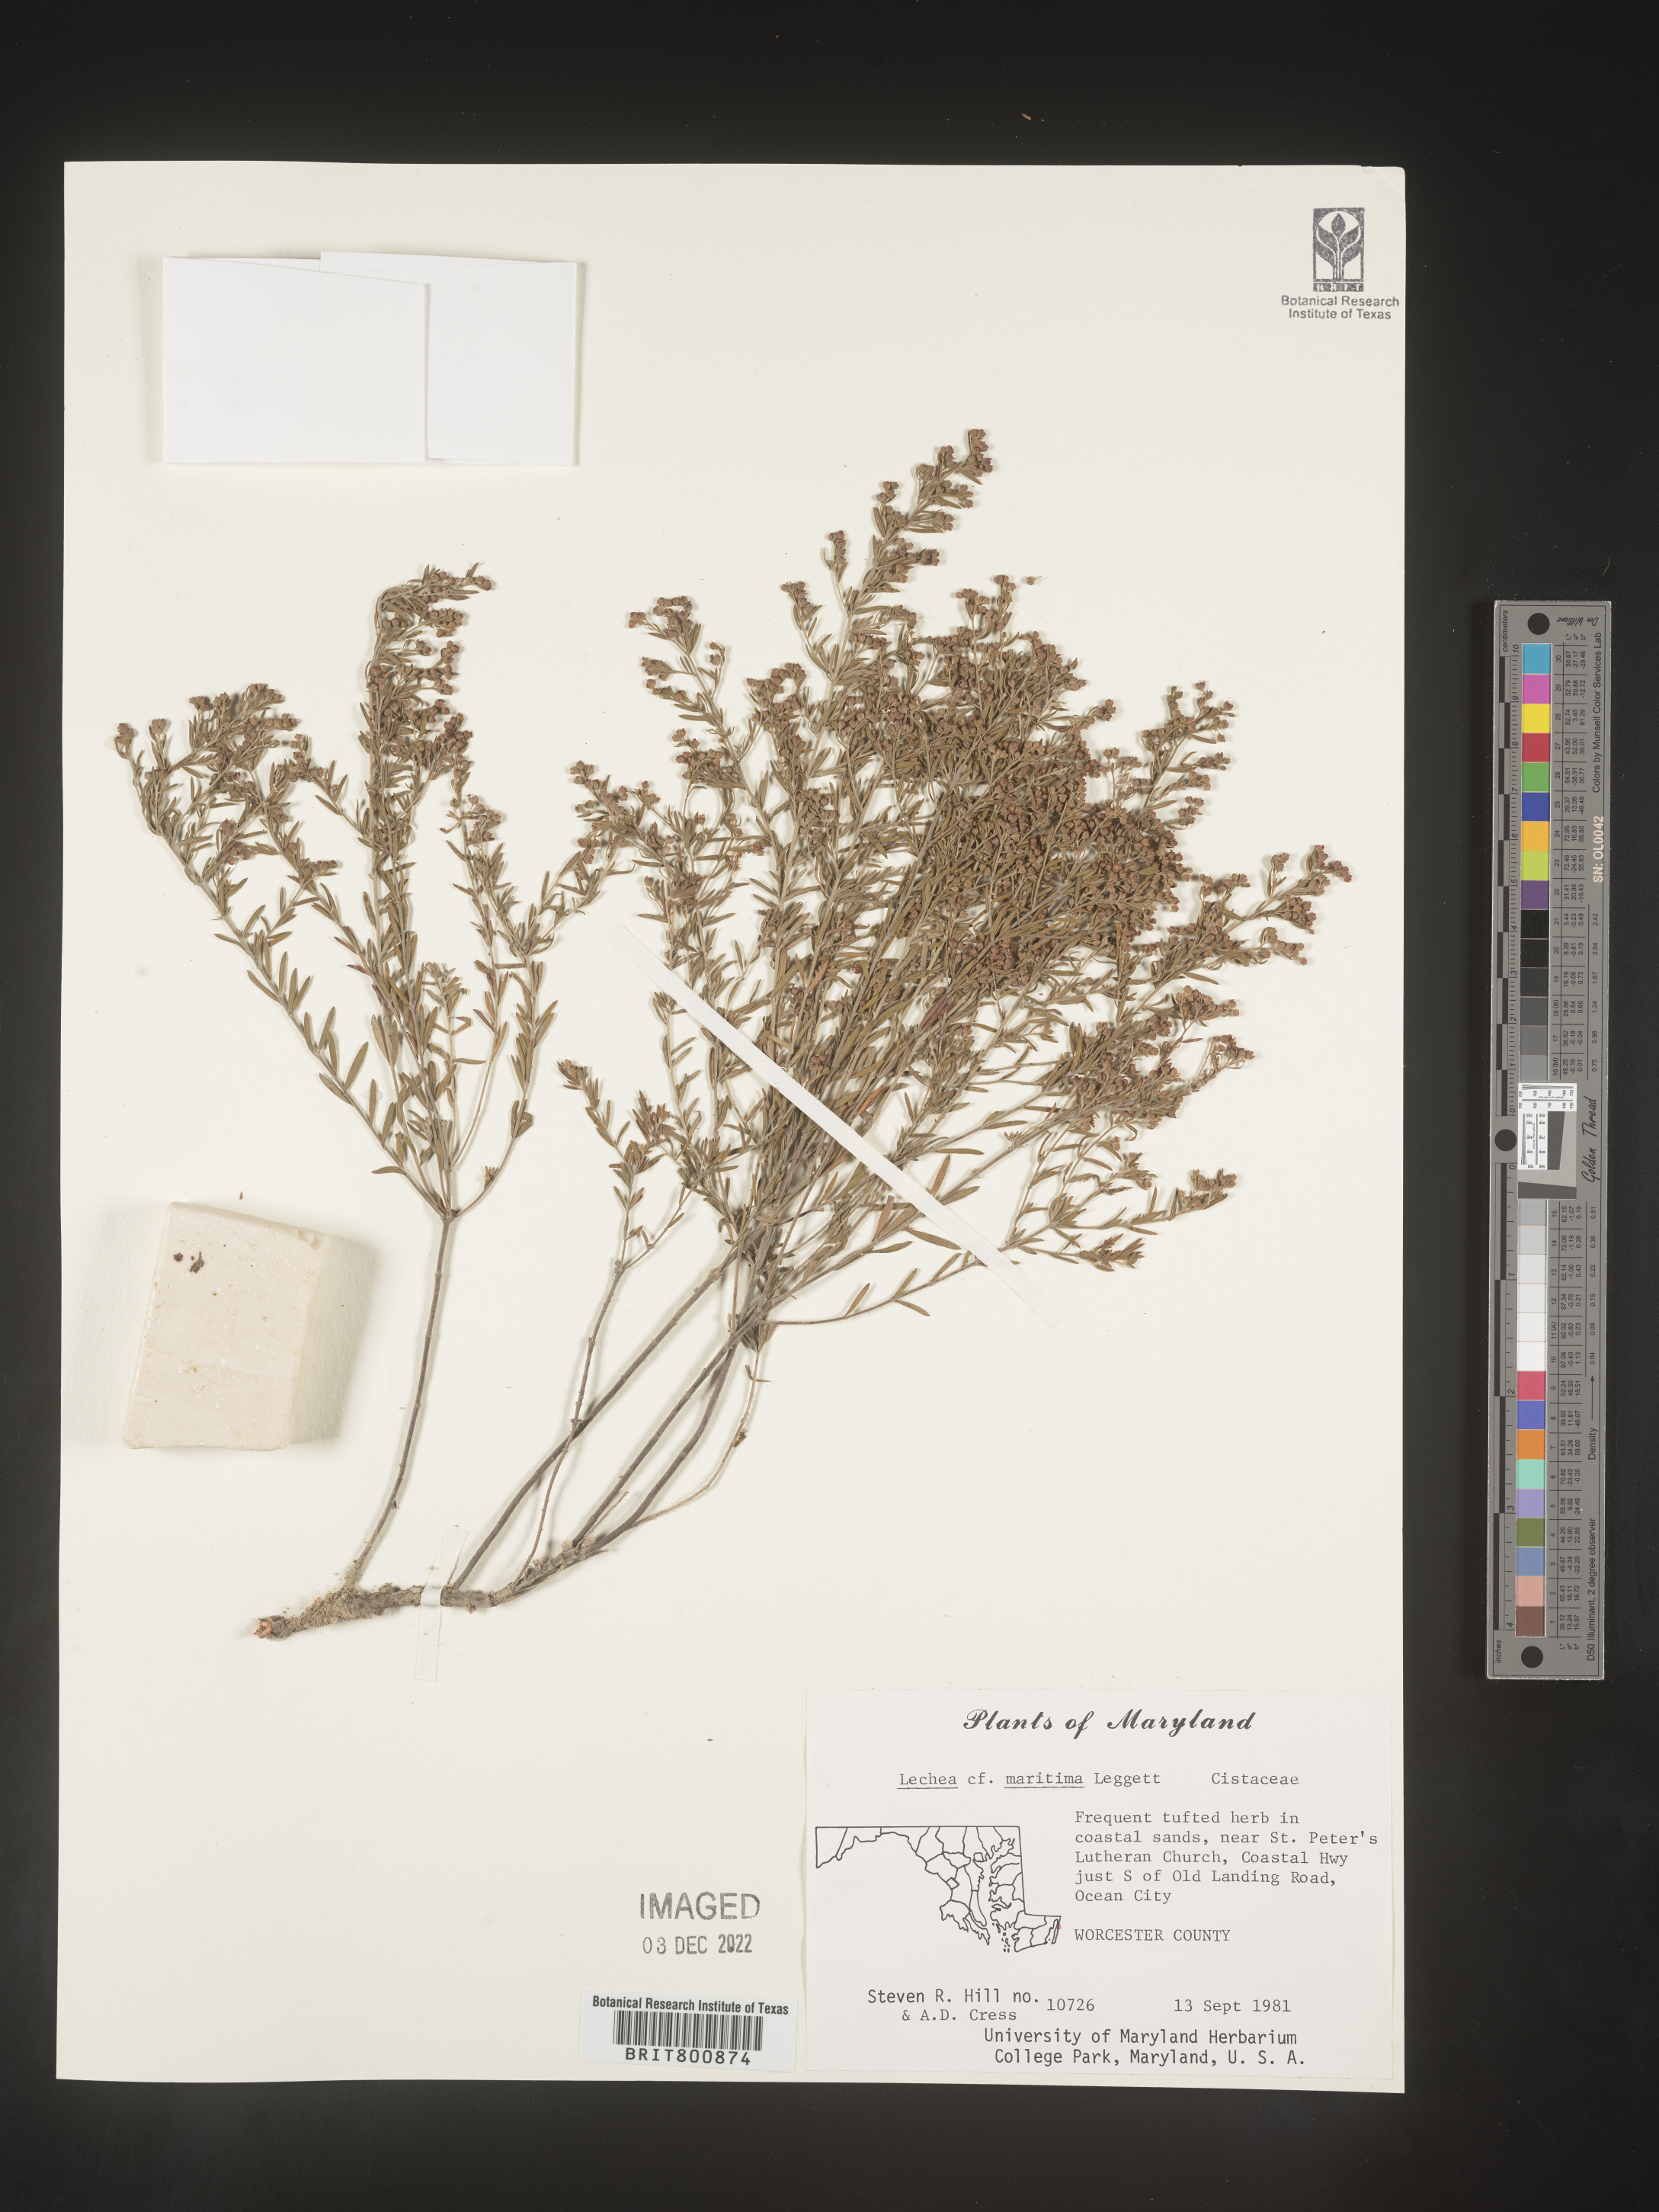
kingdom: Plantae
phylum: Tracheophyta
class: Magnoliopsida
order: Malvales
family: Cistaceae
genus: Lechea
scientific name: Lechea maritima
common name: Beach pinweed
